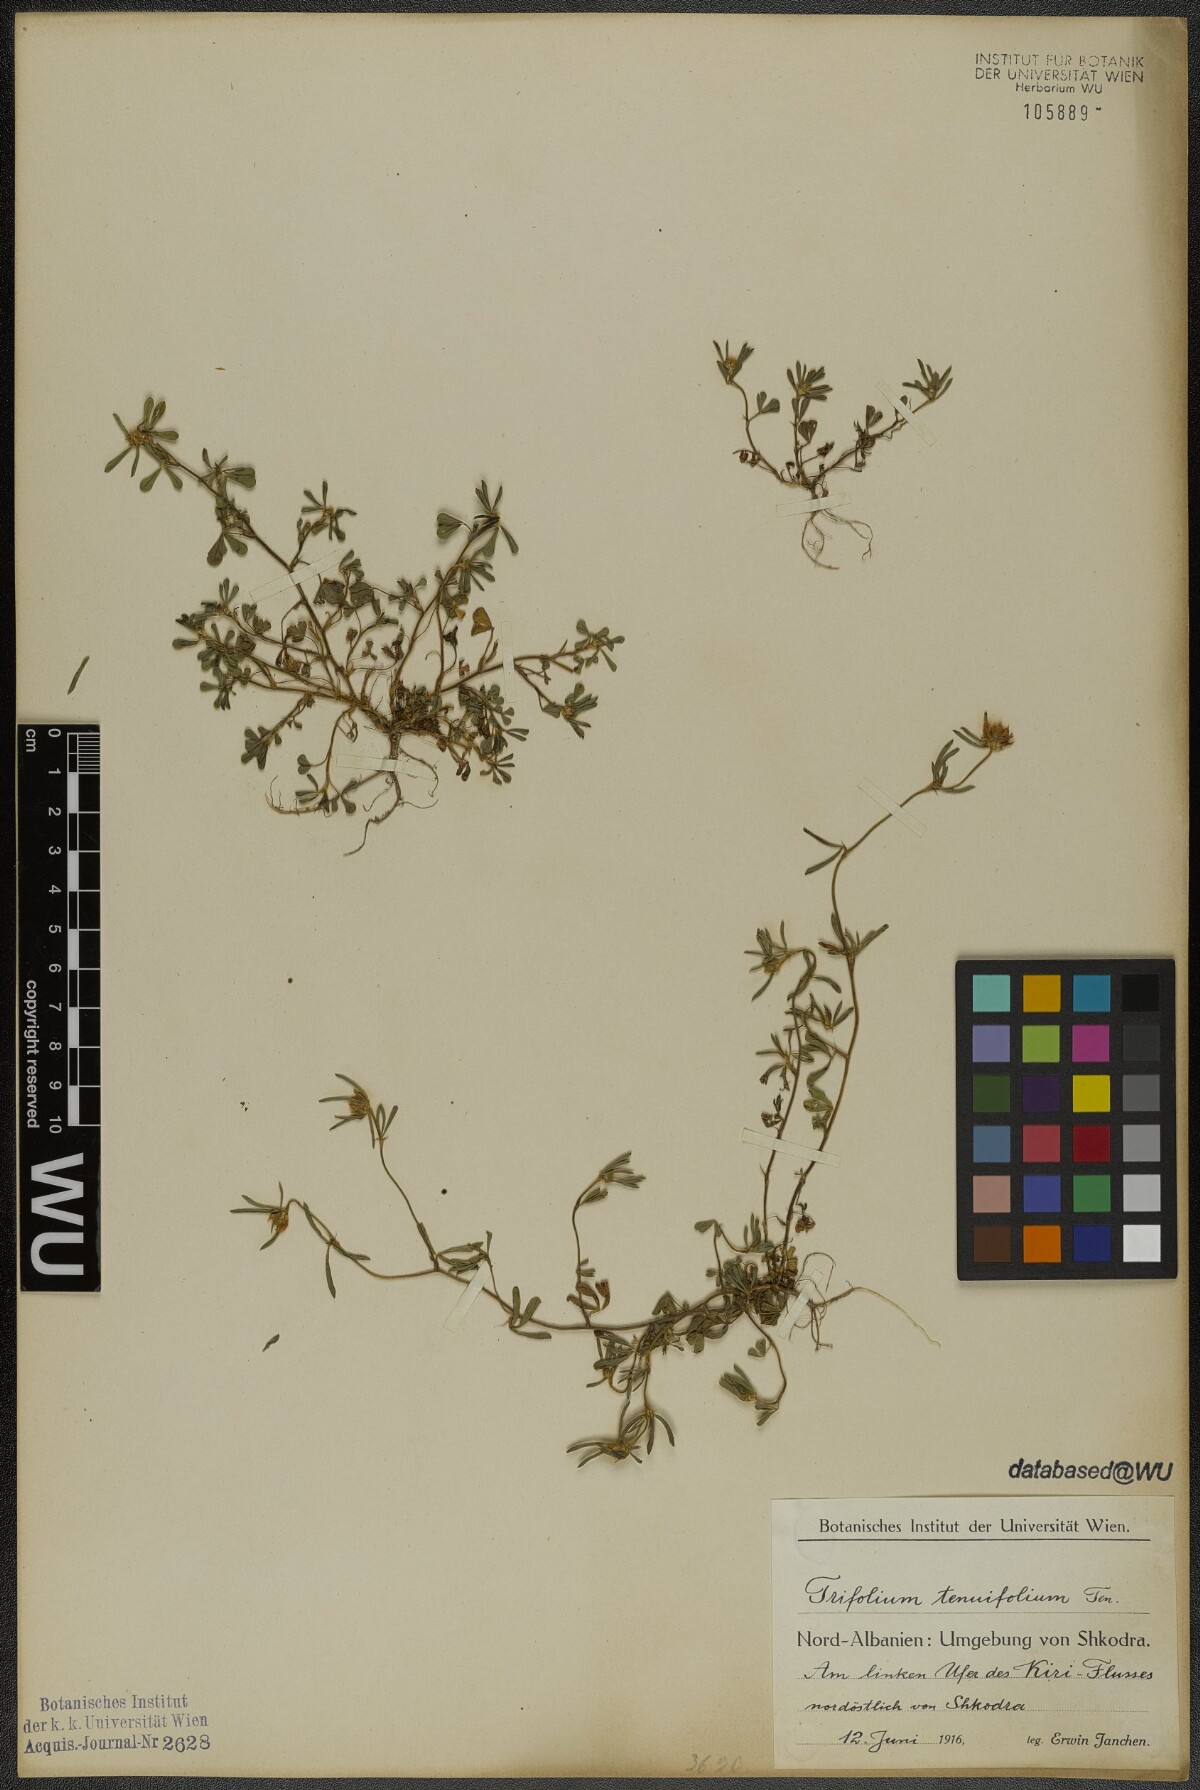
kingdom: Plantae
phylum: Tracheophyta
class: Magnoliopsida
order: Fabales
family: Fabaceae
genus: Trifolium
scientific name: Trifolium tenuifolium
